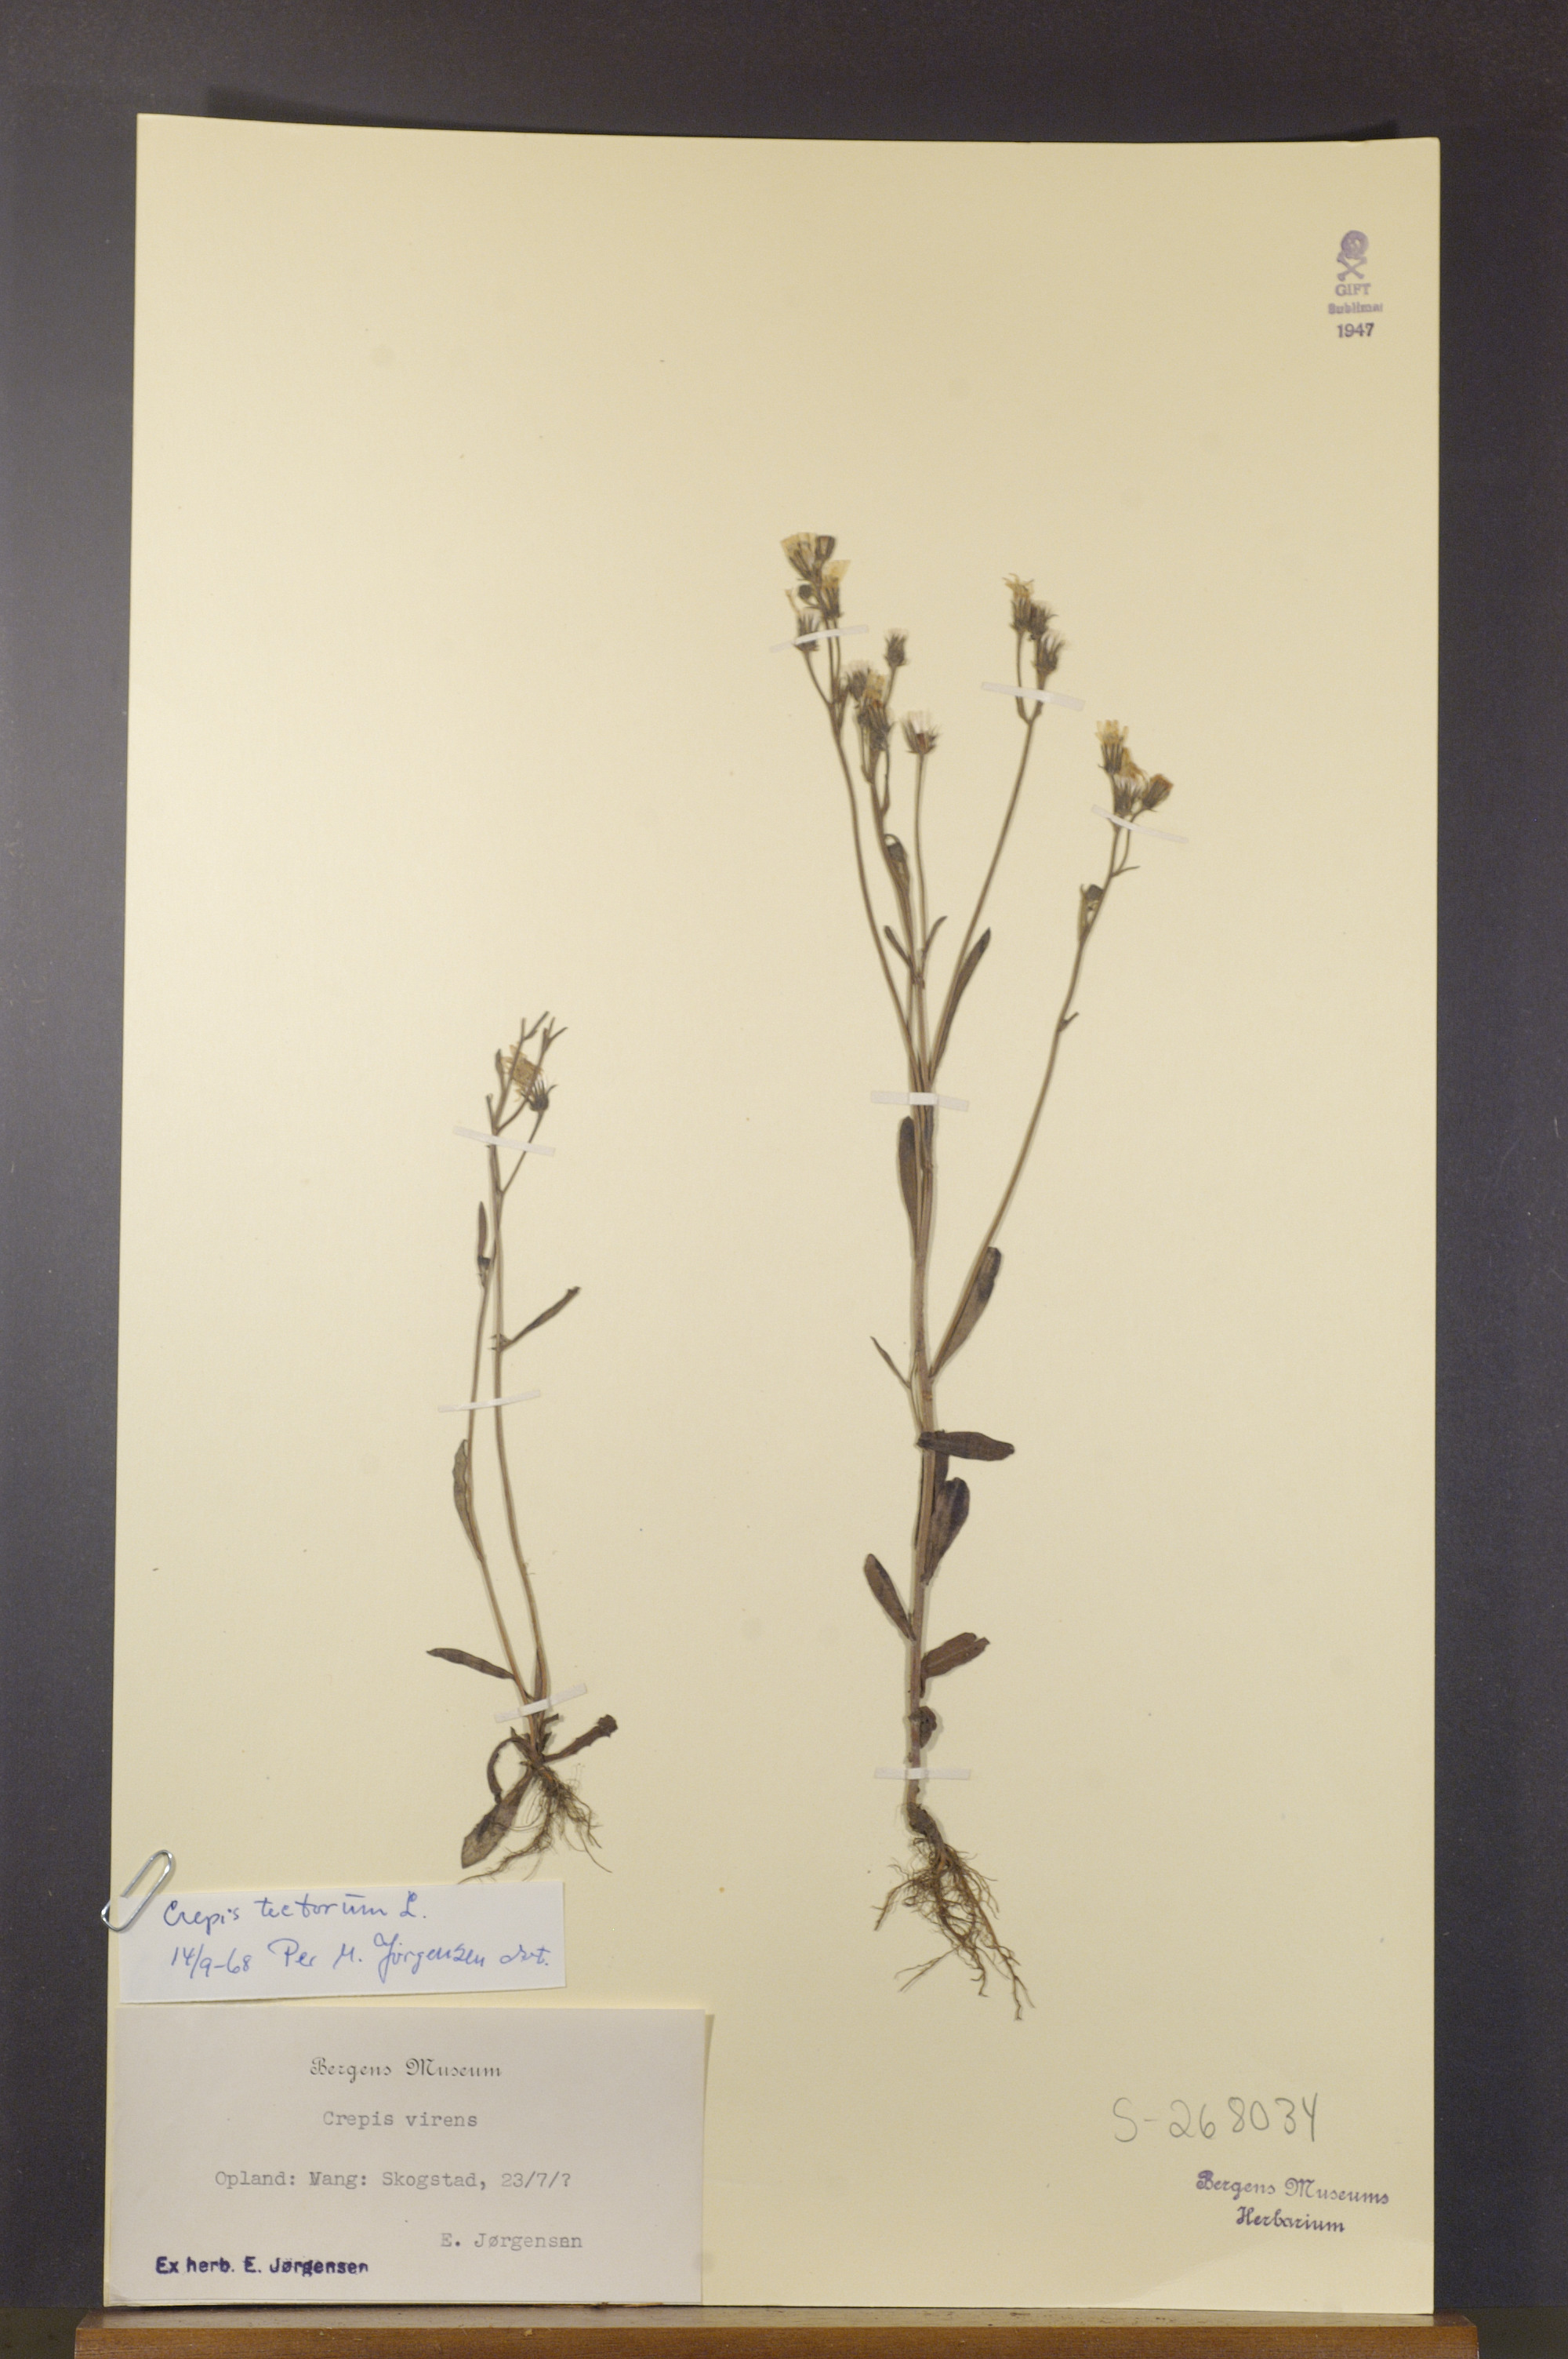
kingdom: Plantae
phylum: Tracheophyta
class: Magnoliopsida
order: Asterales
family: Asteraceae
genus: Crepis
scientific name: Crepis tectorum
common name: Narrow-leaved hawk's-beard
